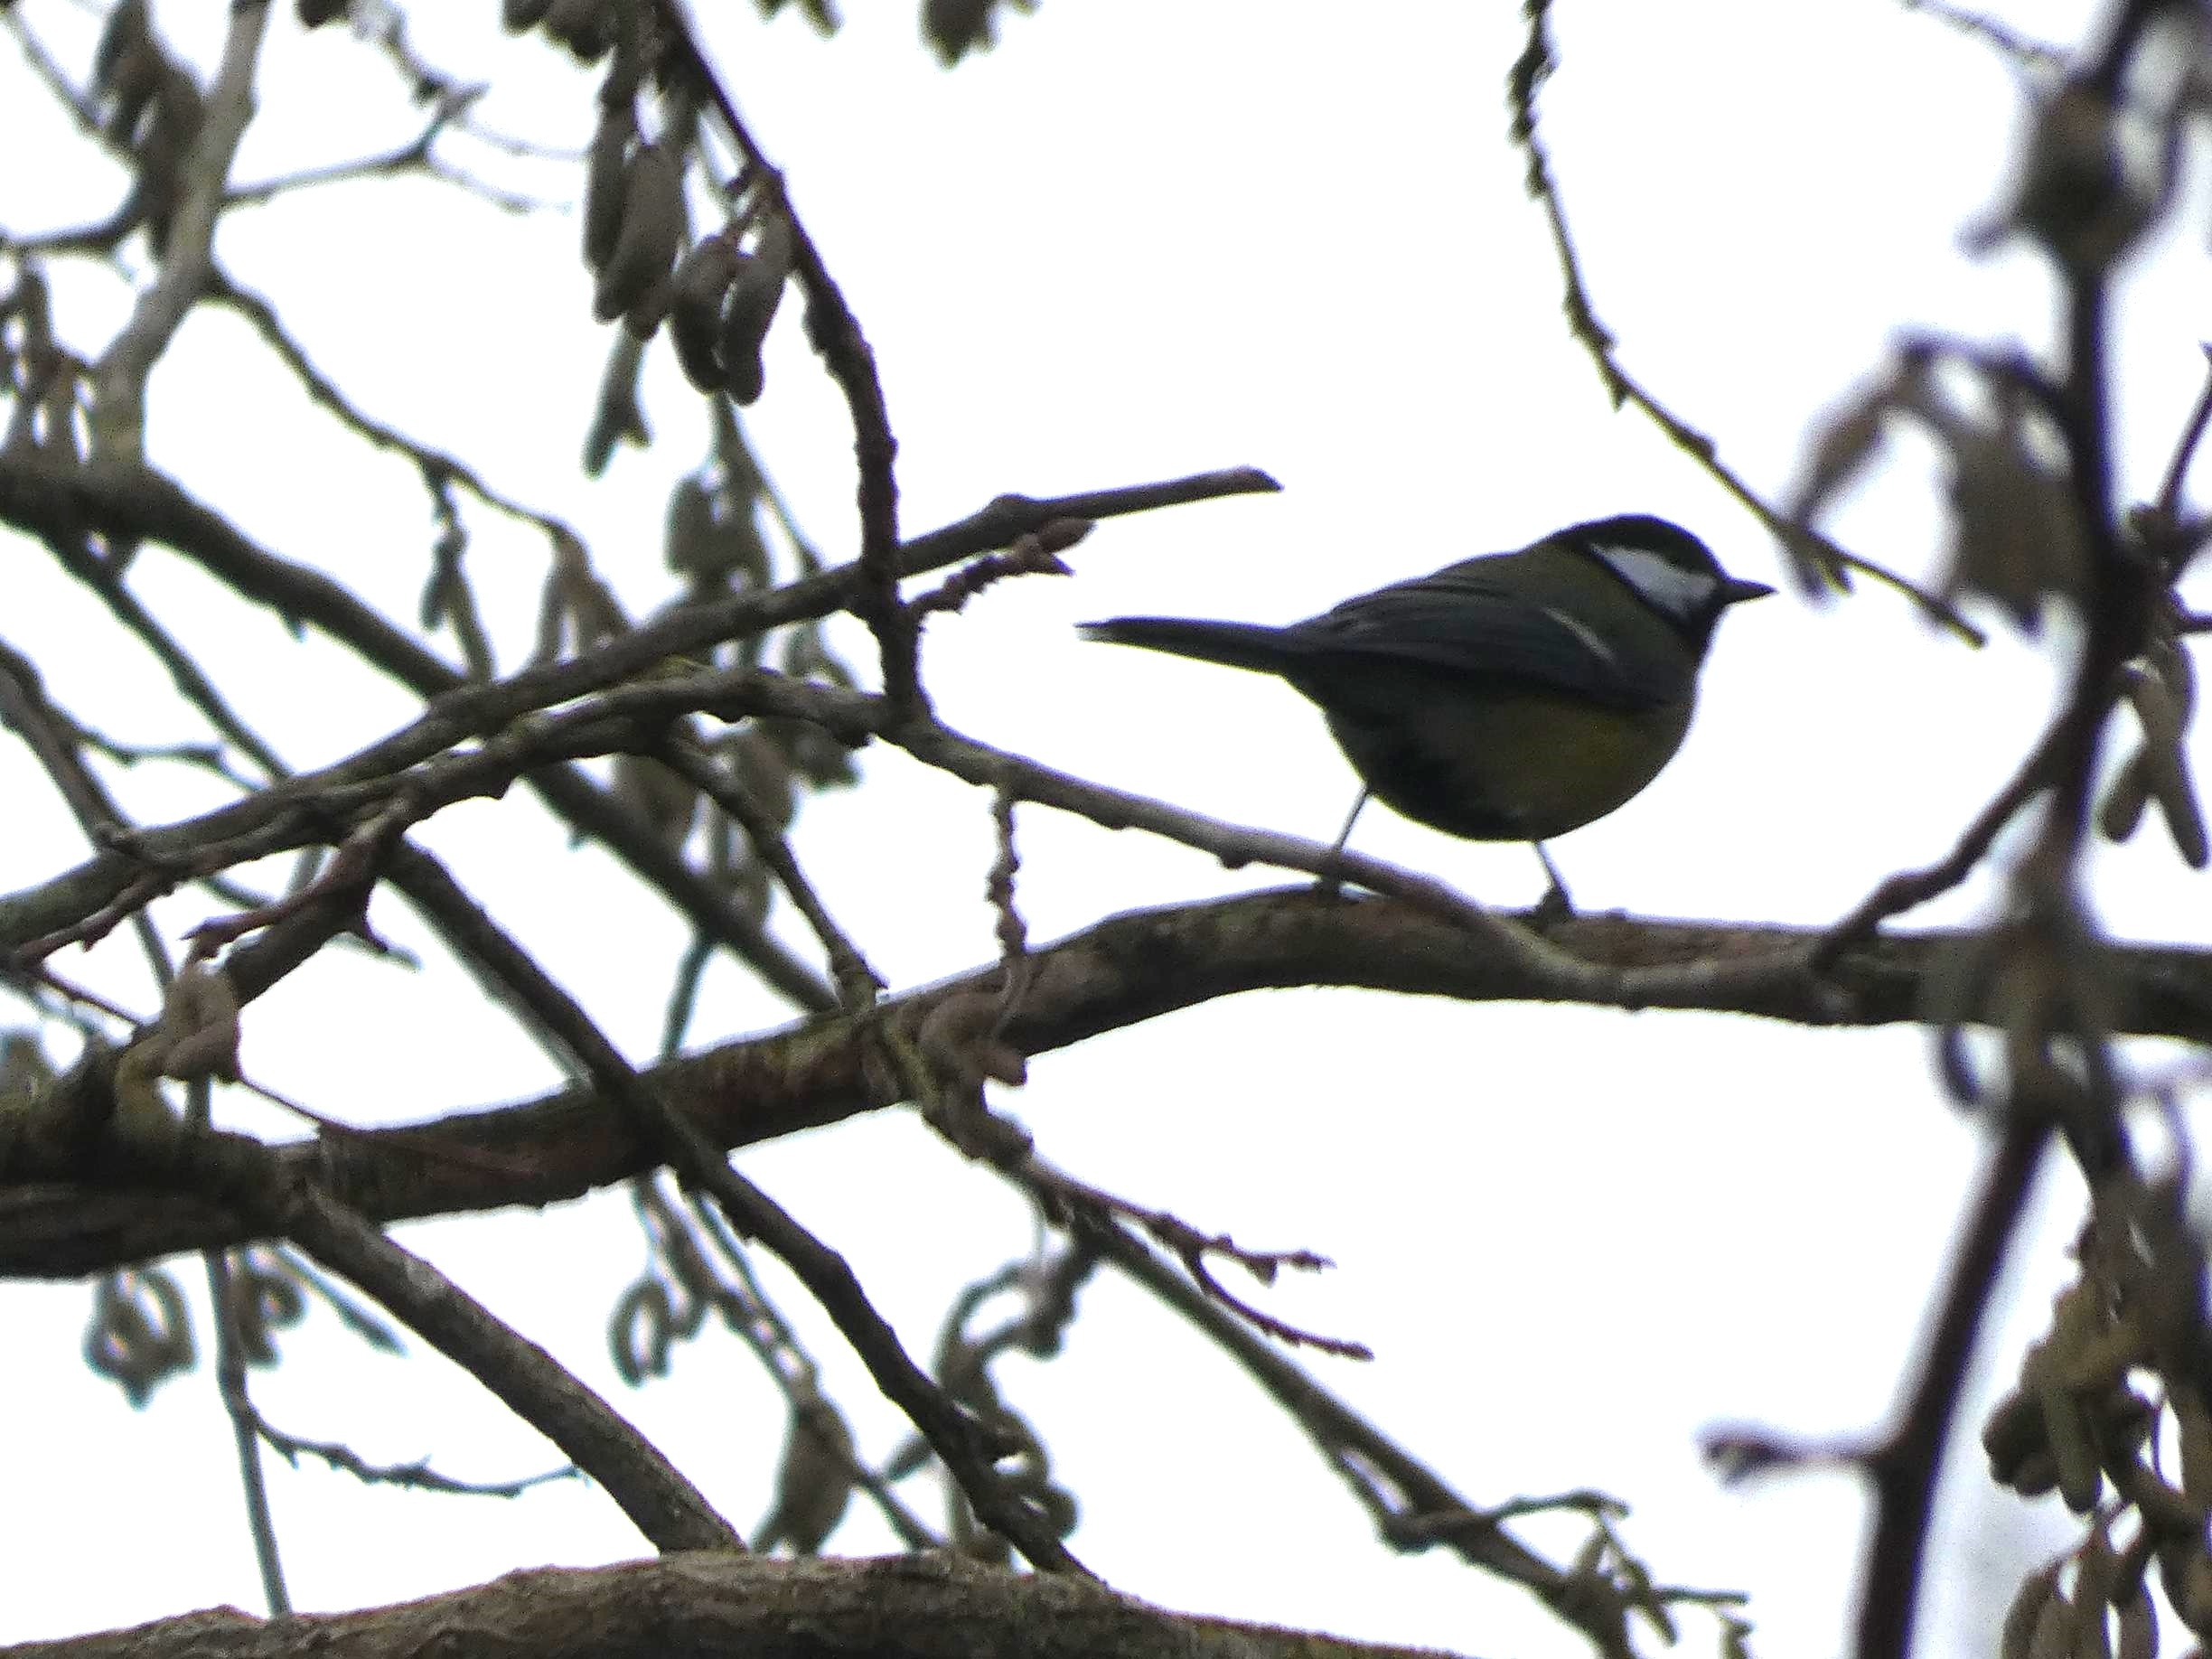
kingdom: Animalia
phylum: Chordata
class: Aves
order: Passeriformes
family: Paridae
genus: Parus
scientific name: Parus major
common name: Musvit
